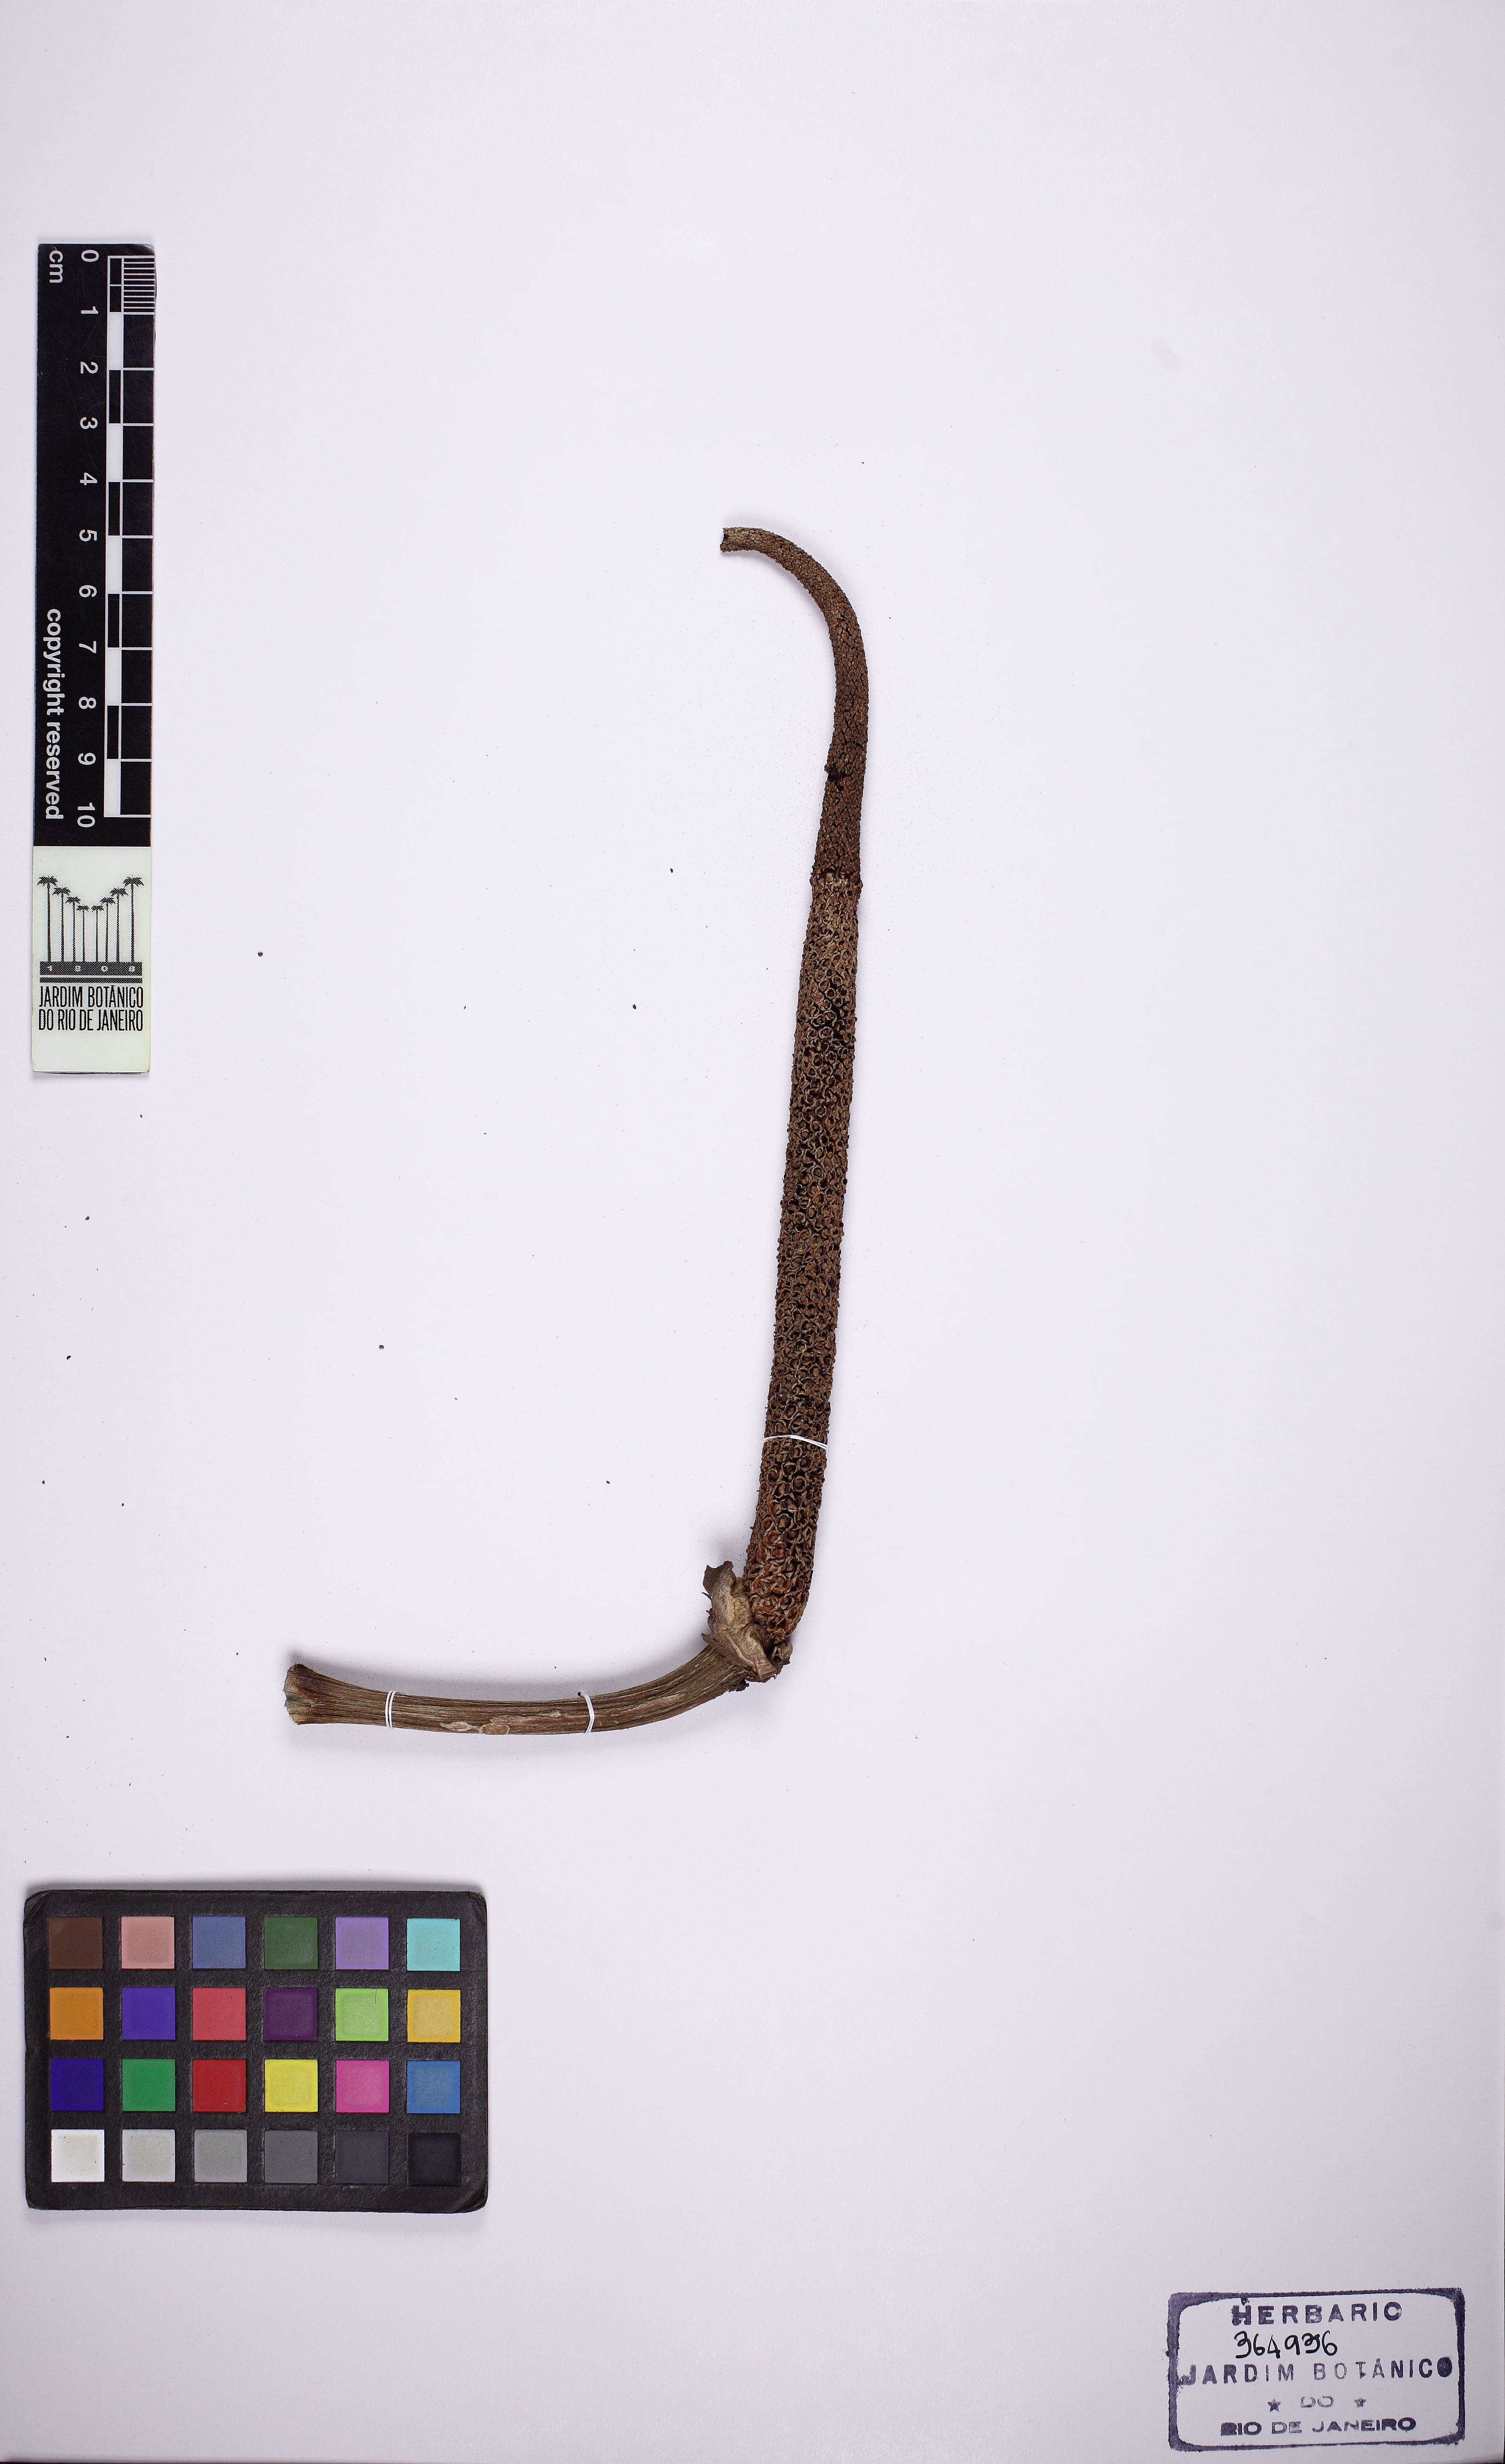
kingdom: Plantae
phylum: Tracheophyta
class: Liliopsida
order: Alismatales
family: Araceae
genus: Anthurium
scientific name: Anthurium plowmanii
